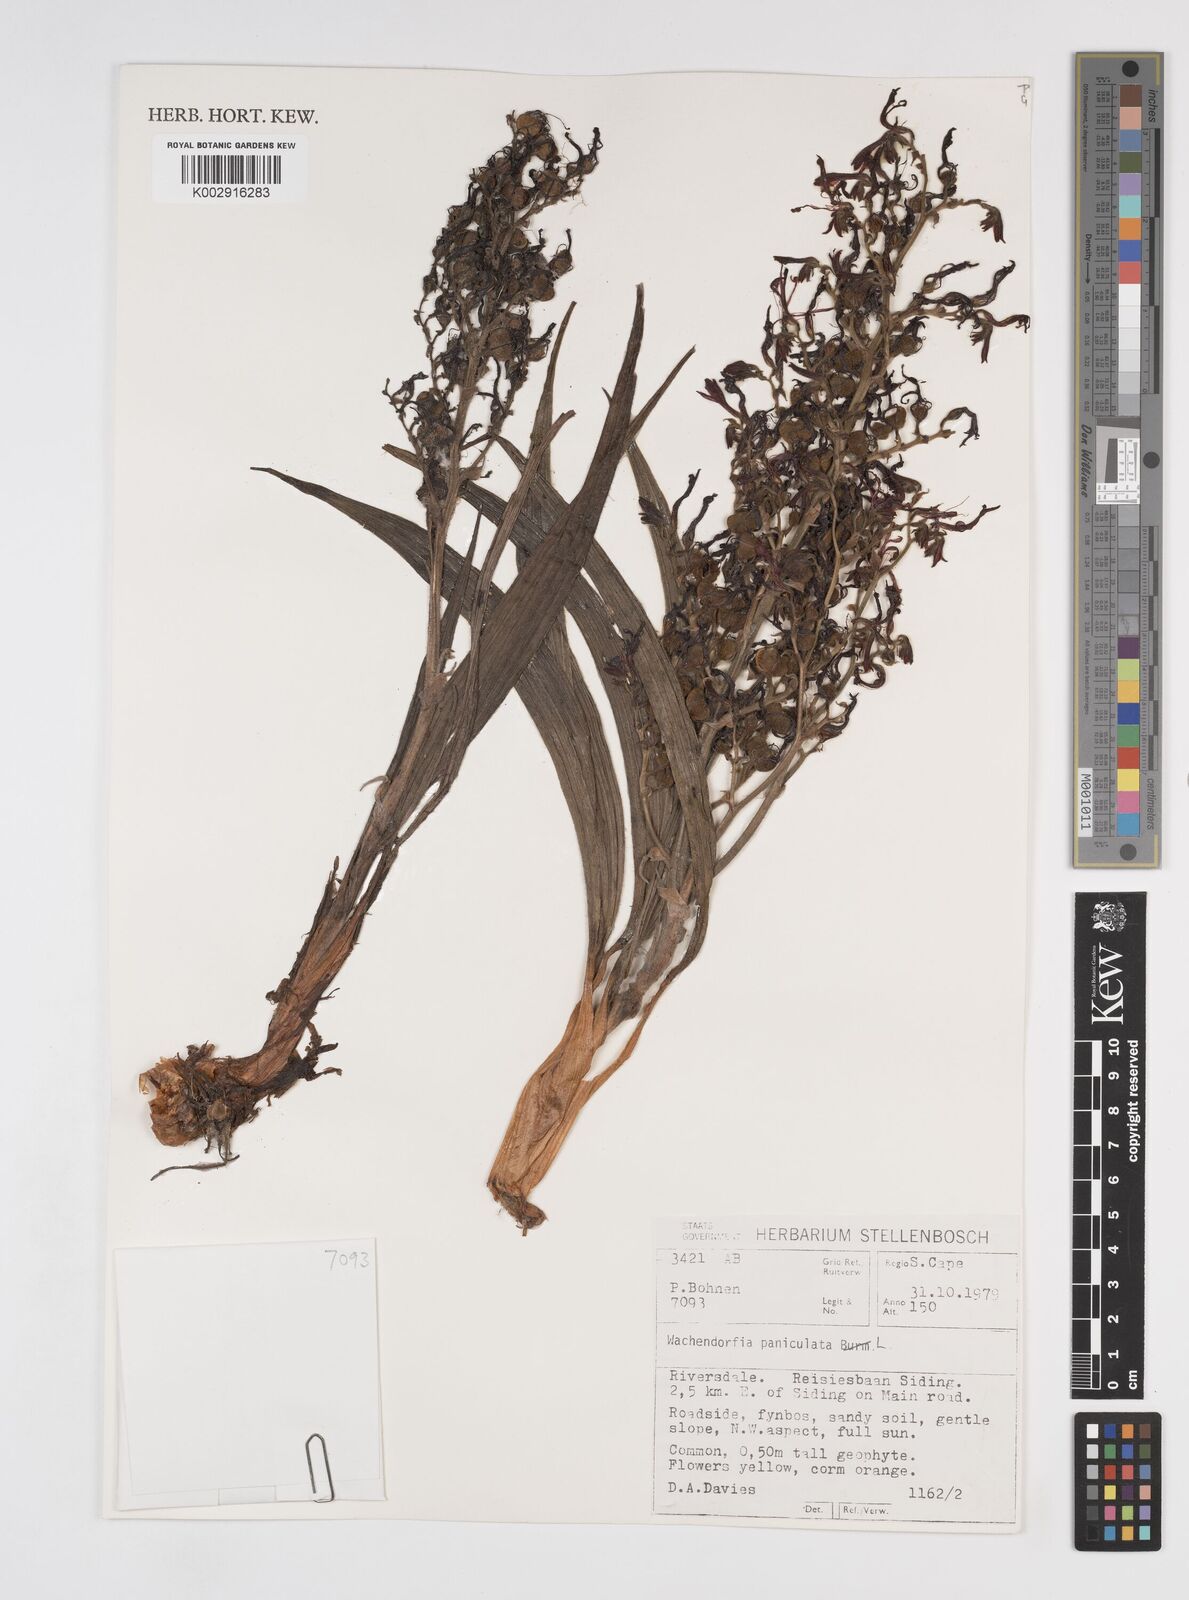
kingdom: Plantae
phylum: Tracheophyta
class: Liliopsida
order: Commelinales
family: Haemodoraceae
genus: Wachendorfia
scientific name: Wachendorfia paniculata
